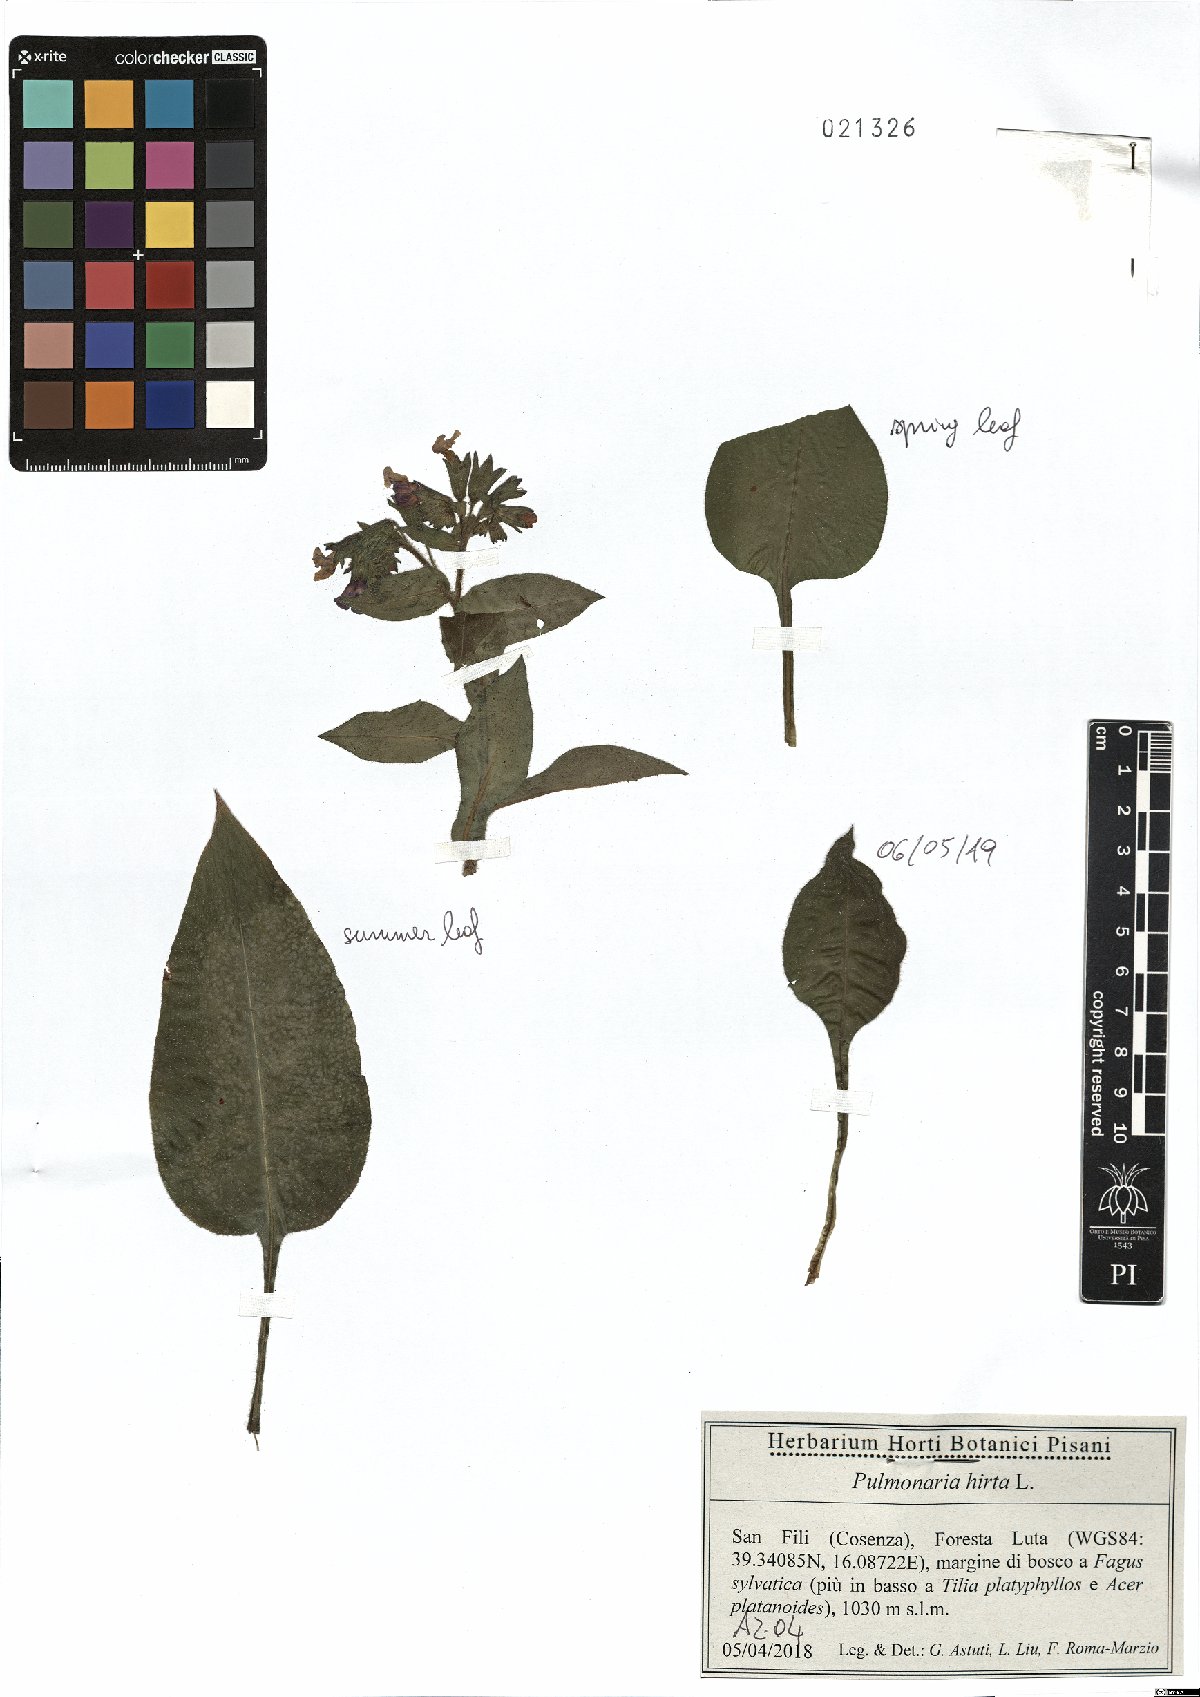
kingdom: Plantae
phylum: Tracheophyta
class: Magnoliopsida
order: Boraginales
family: Boraginaceae
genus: Pulmonaria
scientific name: Pulmonaria hirta
